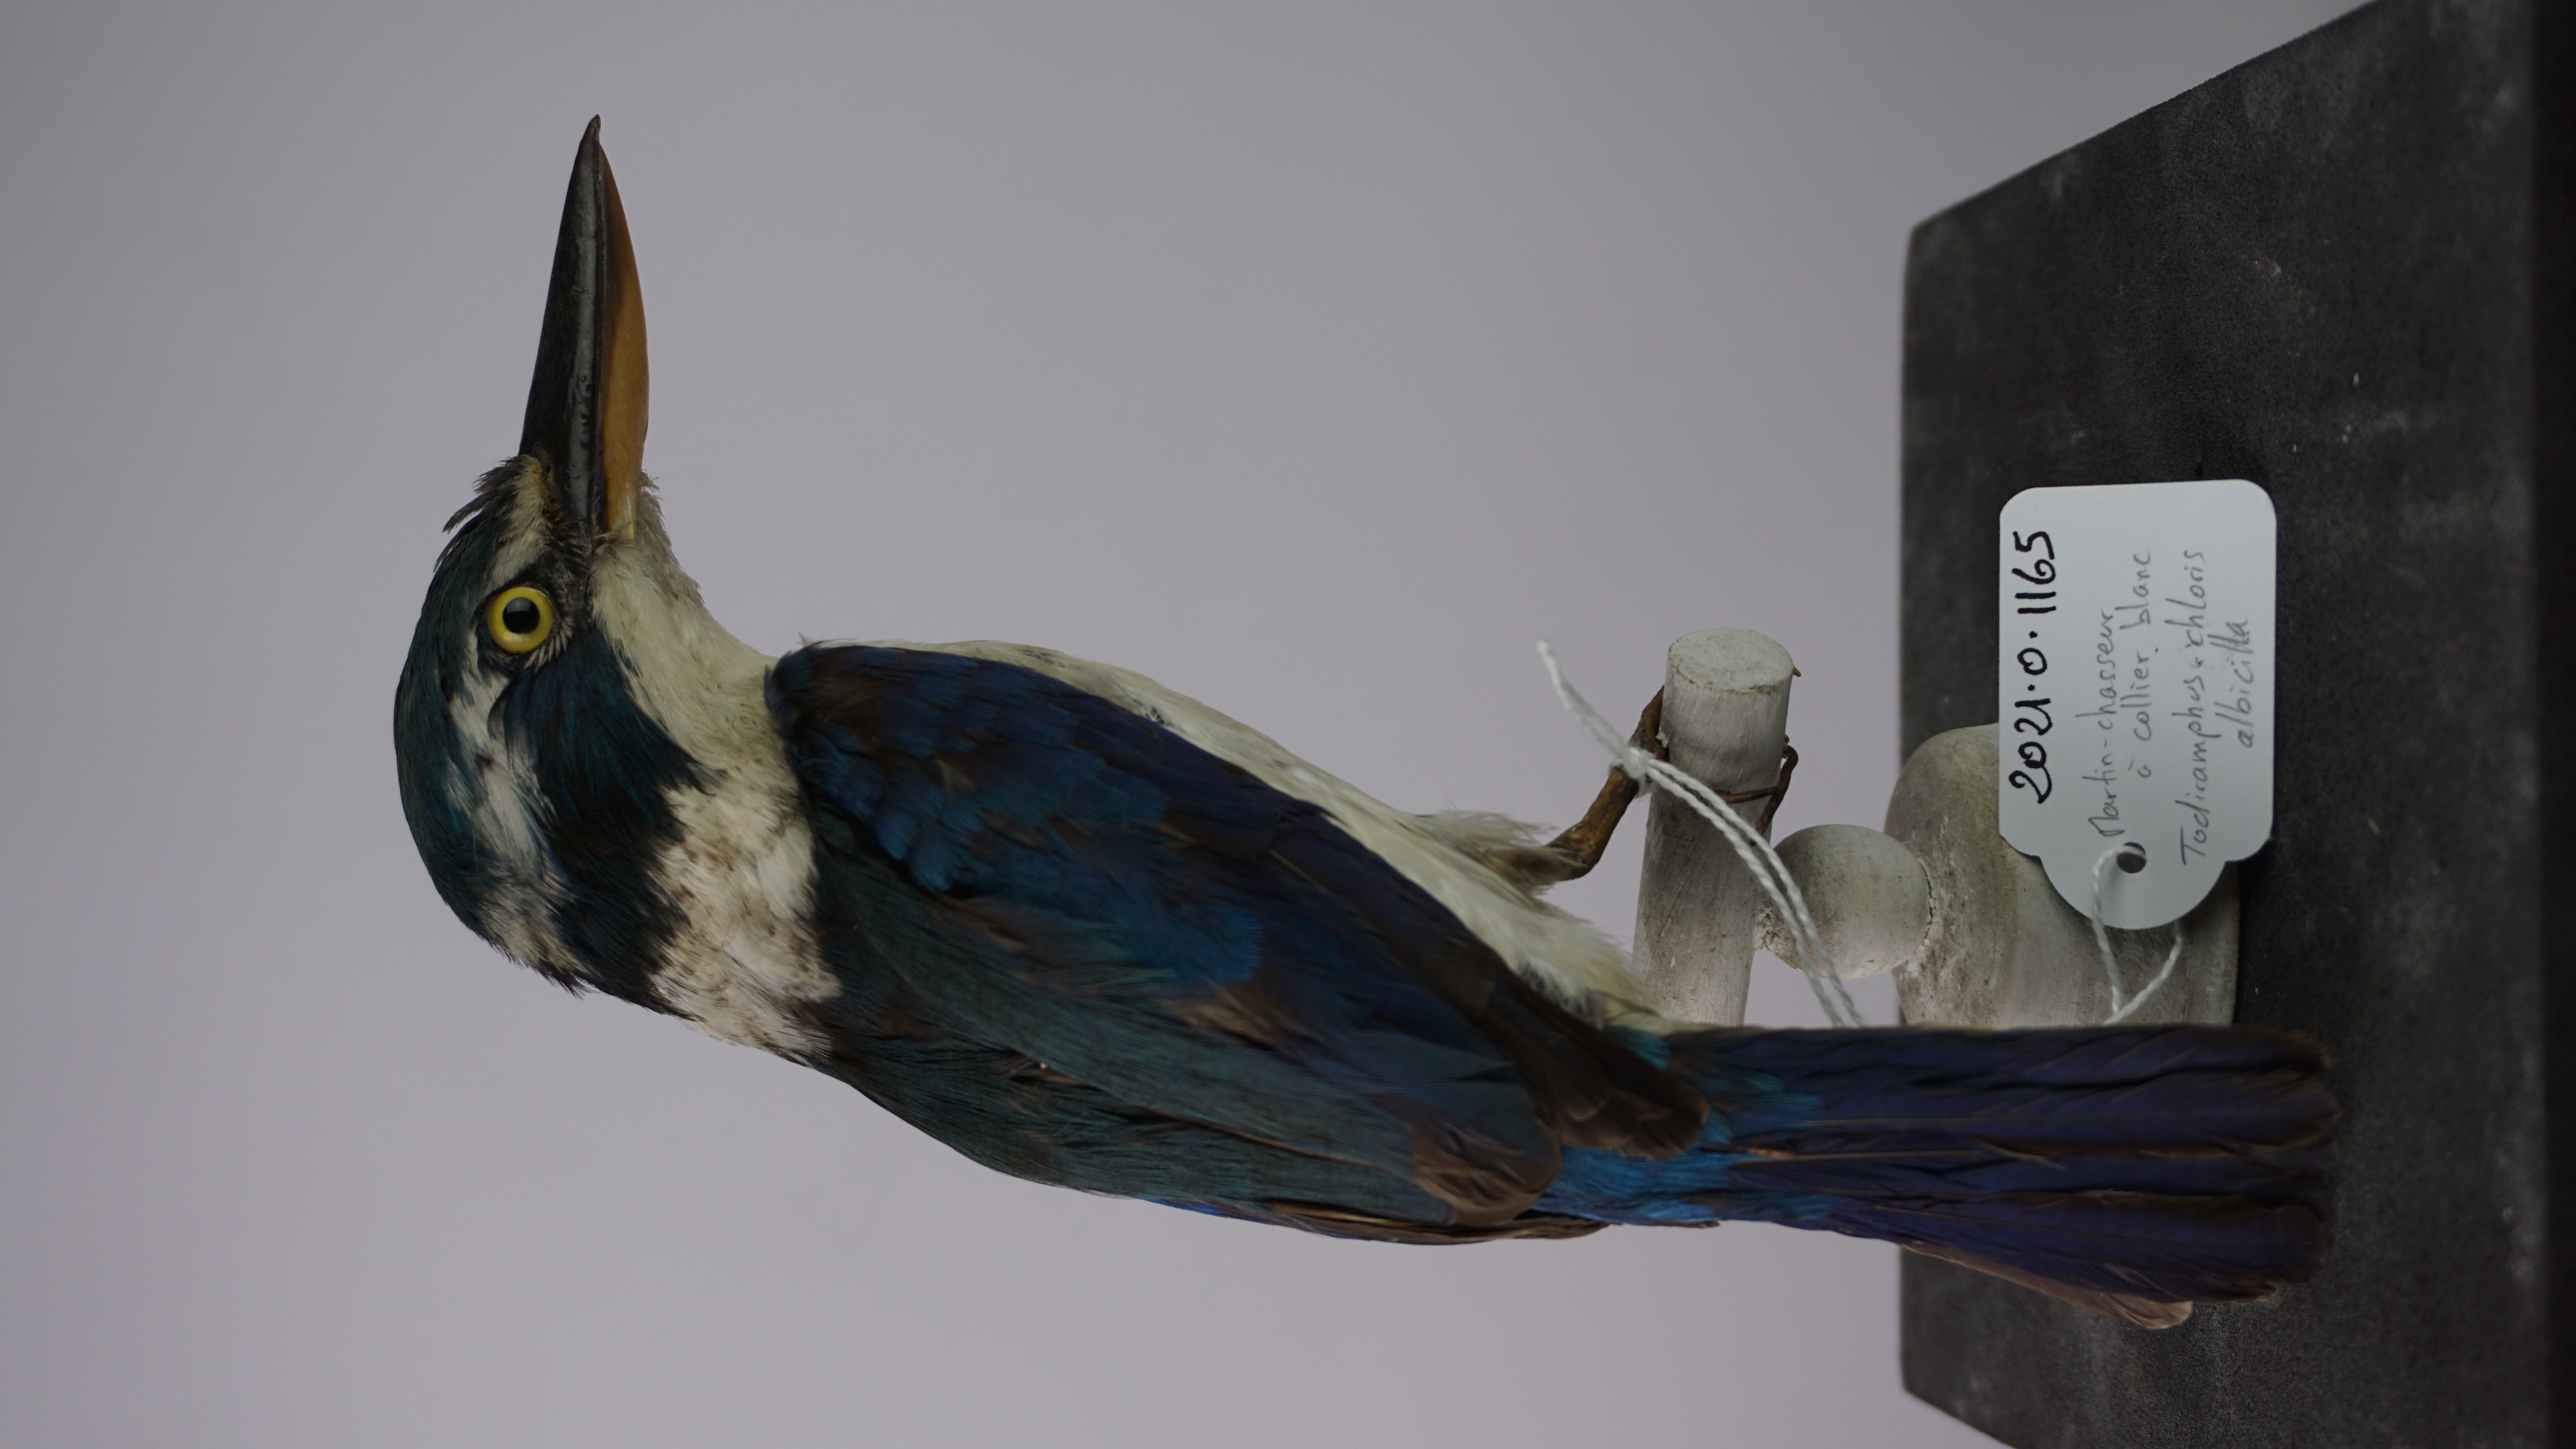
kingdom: Animalia
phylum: Chordata
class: Aves
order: Coraciiformes
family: Alcedinidae
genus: Todiramphus
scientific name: Todiramphus albicilla
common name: Mariana kingfisher
